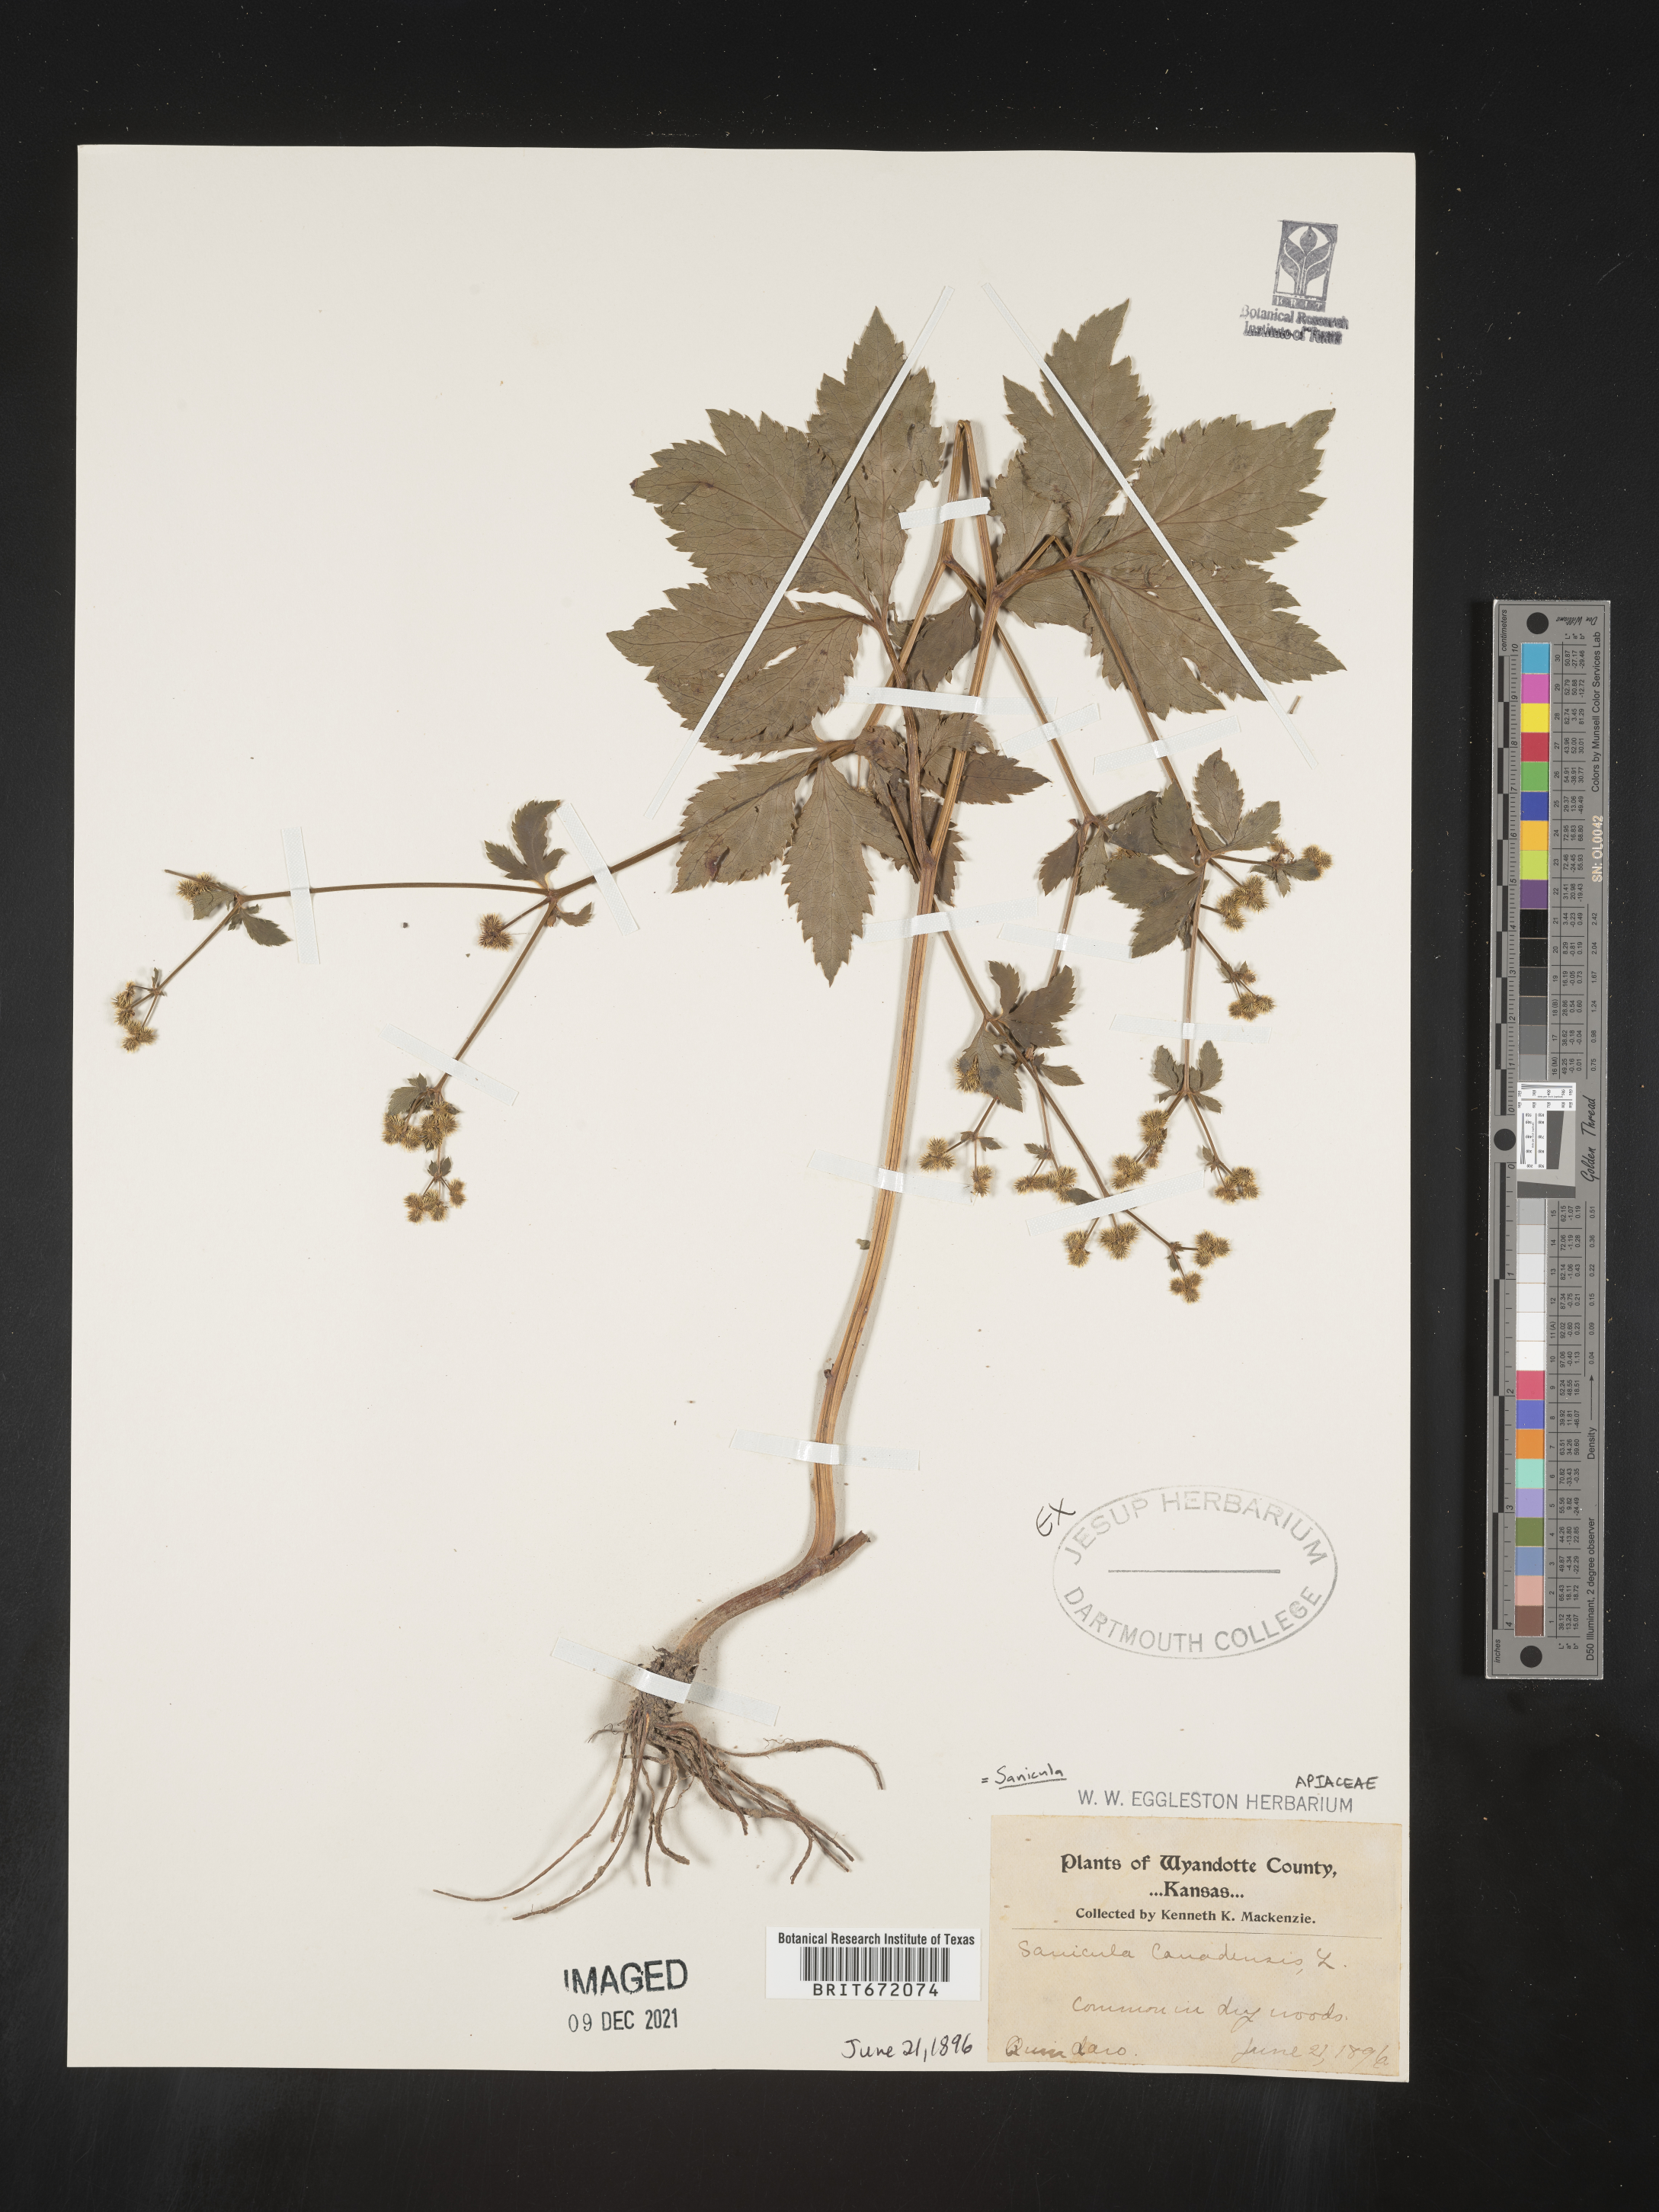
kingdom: Plantae
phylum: Tracheophyta
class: Magnoliopsida
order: Apiales
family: Apiaceae
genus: Sanicula
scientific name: Sanicula canadensis
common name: Canada sanicle
